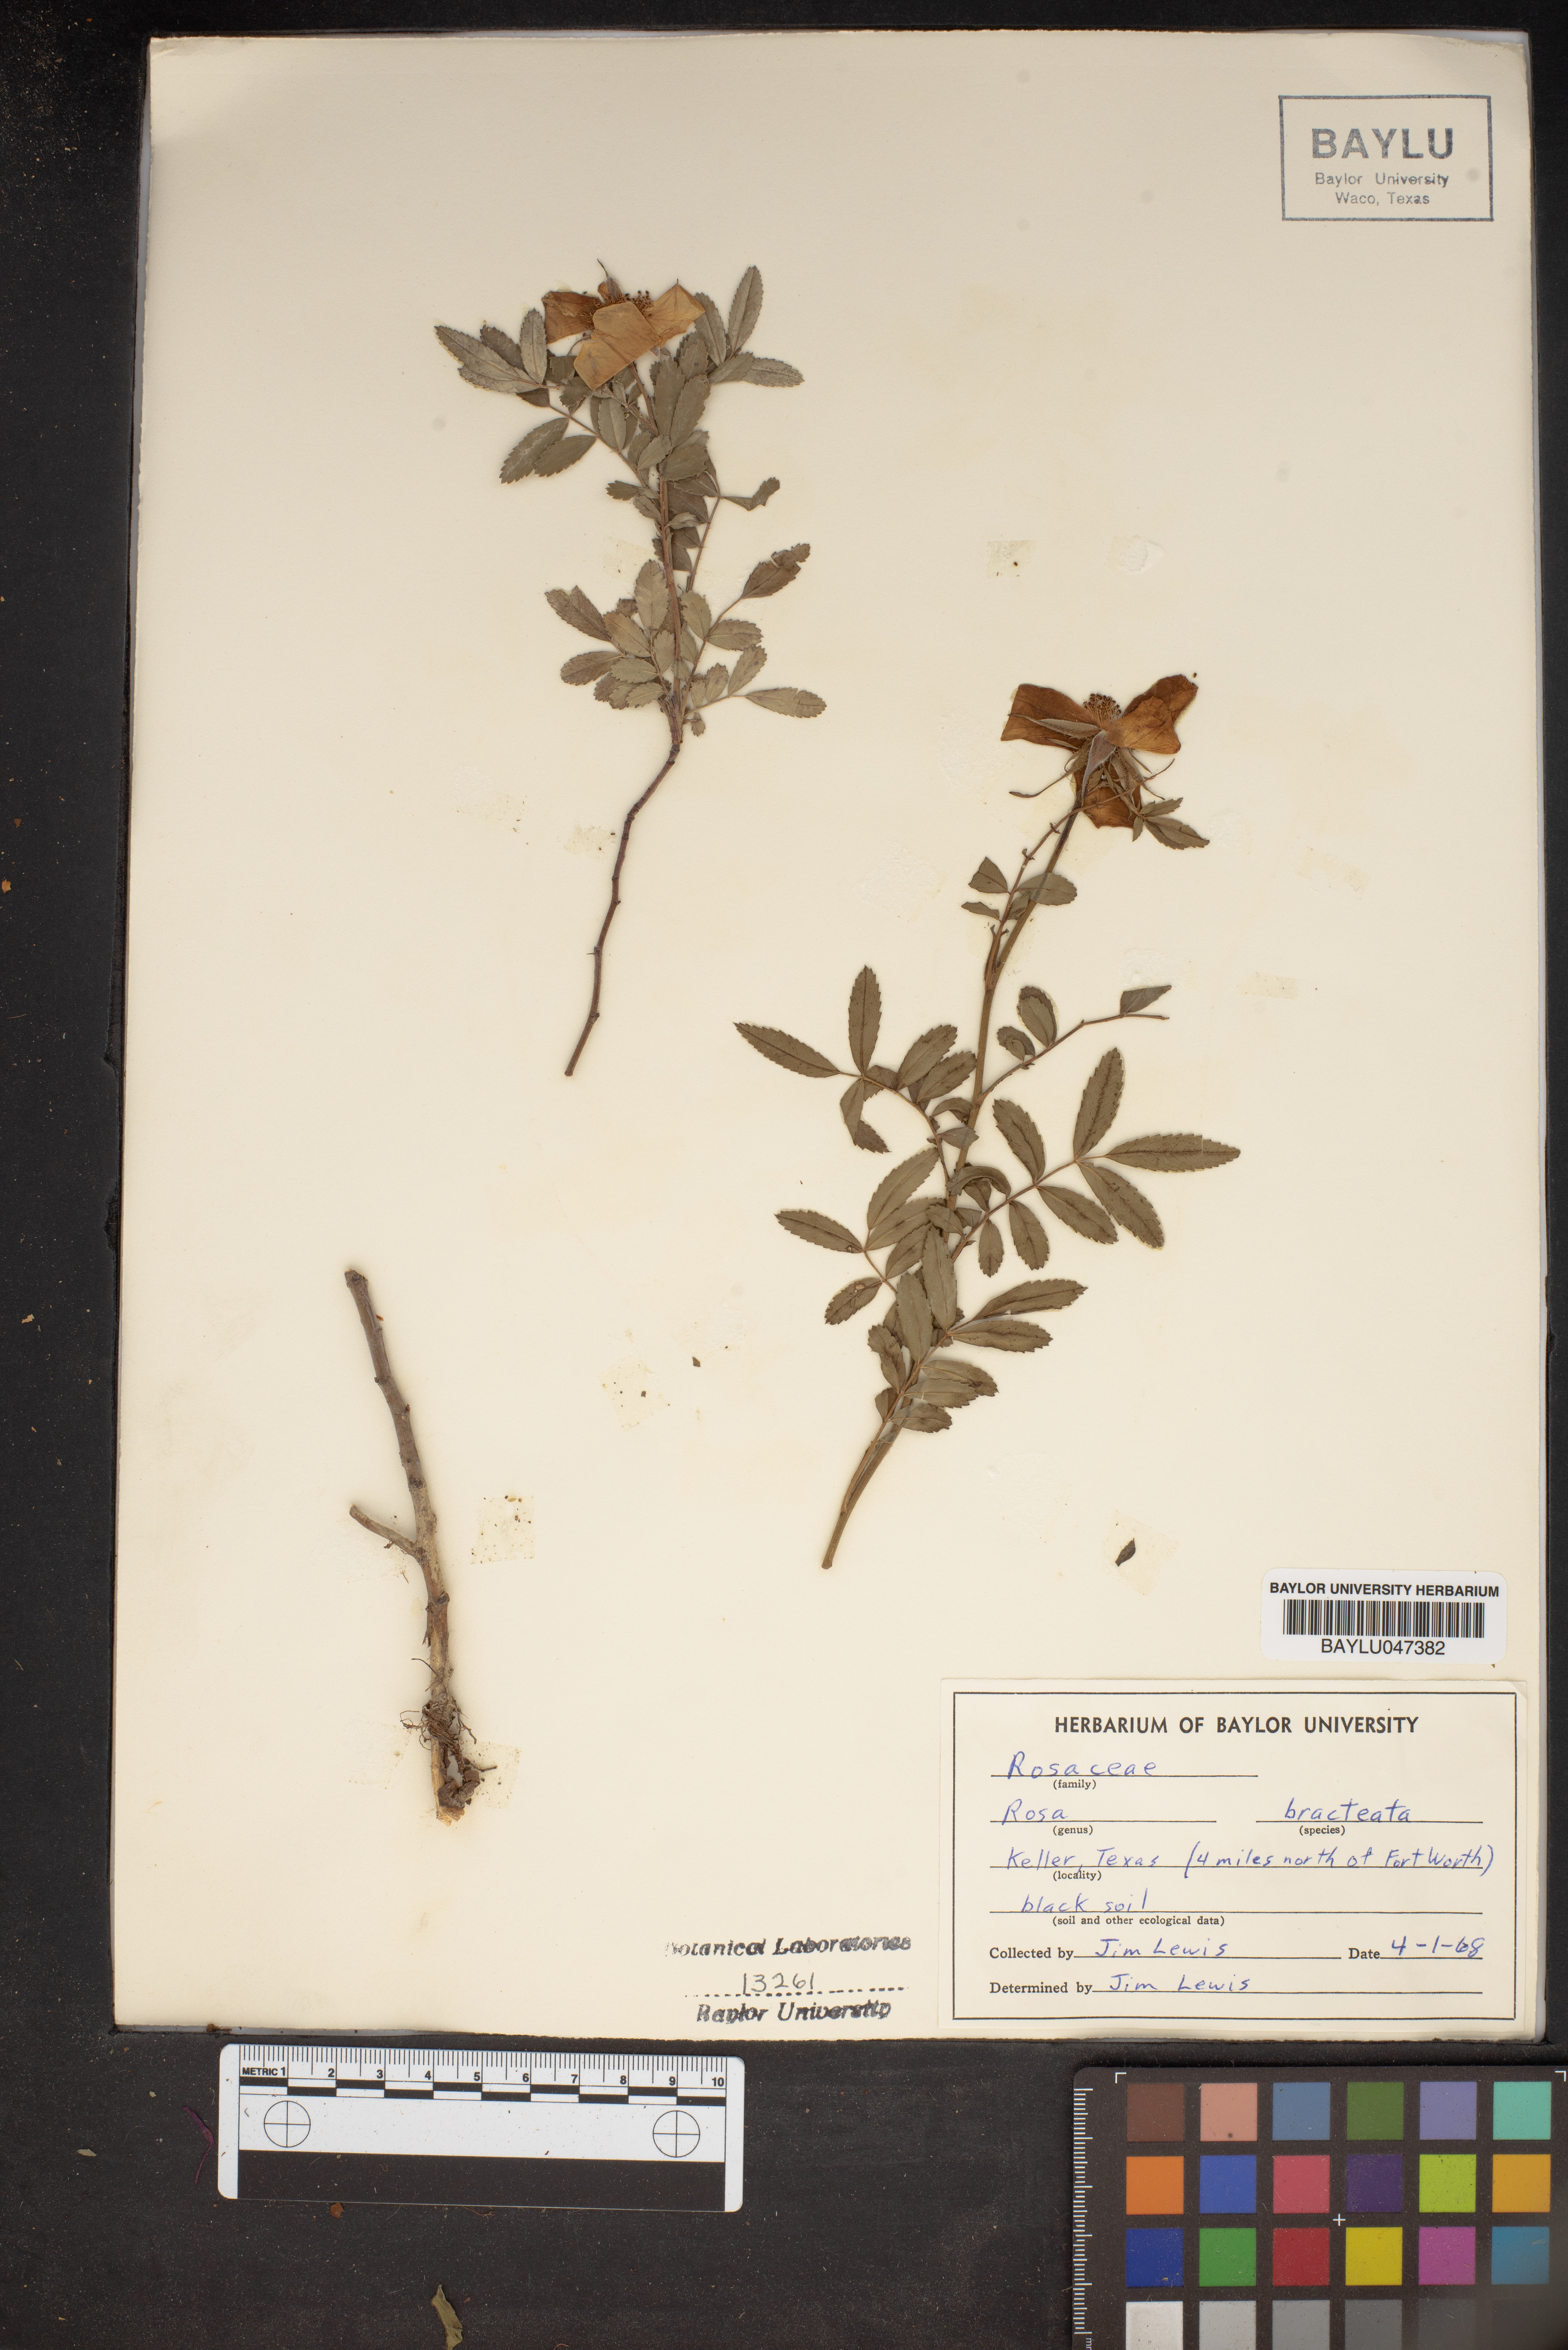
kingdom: Plantae
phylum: Tracheophyta
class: Magnoliopsida
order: Rosales
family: Rosaceae
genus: Rosa
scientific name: Rosa bracteata
